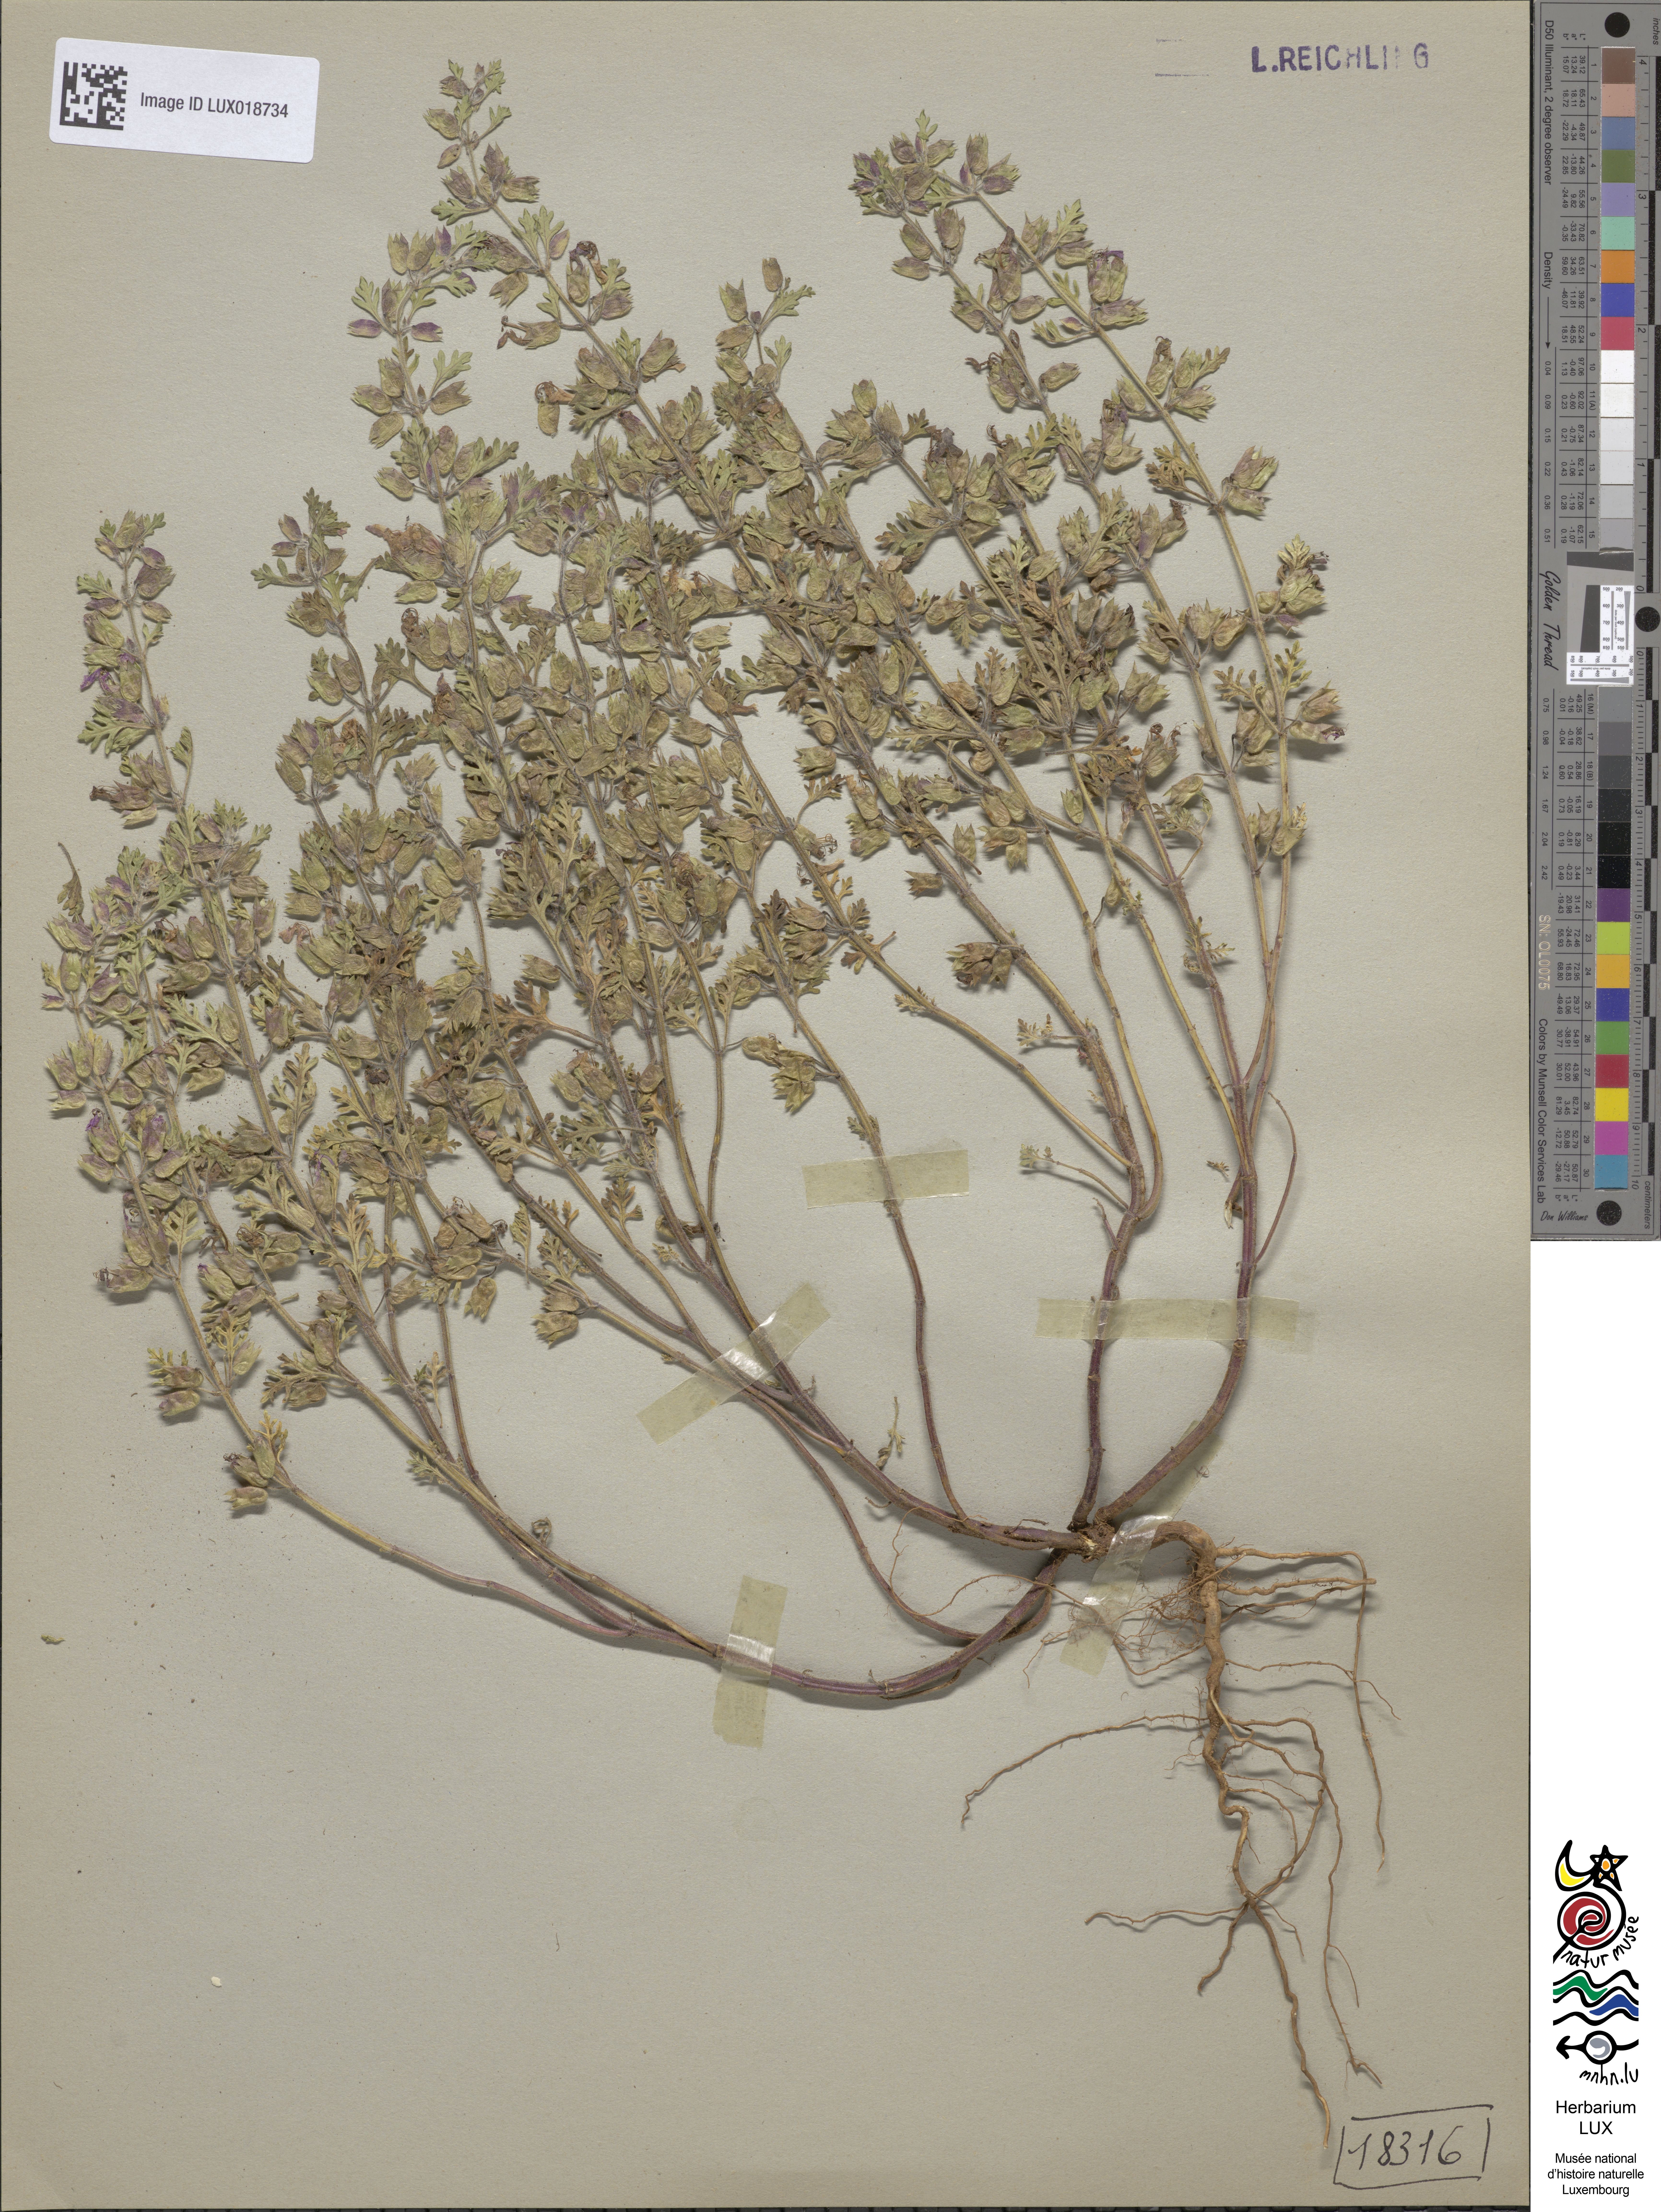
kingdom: Plantae
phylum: Tracheophyta
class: Magnoliopsida
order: Lamiales
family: Lamiaceae
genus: Teucrium
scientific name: Teucrium botrys
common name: Cut-leaved germander
